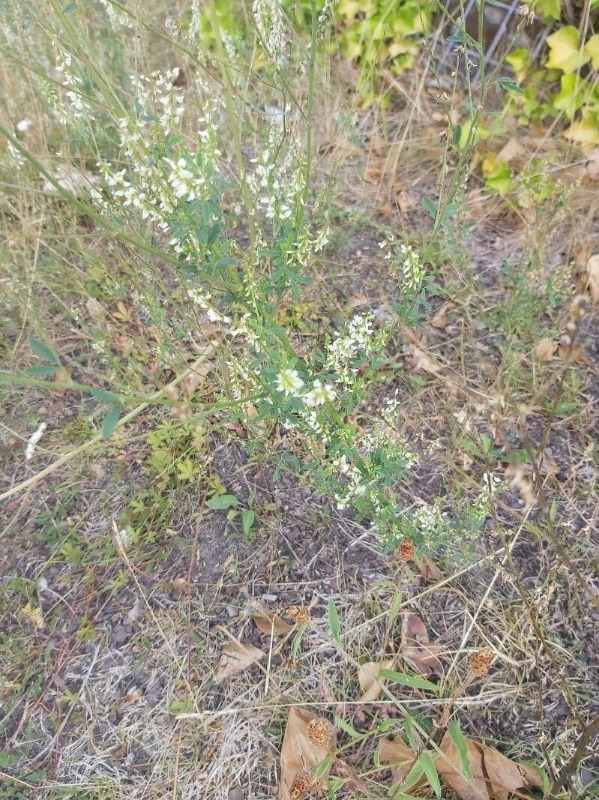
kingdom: Plantae
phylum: Tracheophyta
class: Magnoliopsida
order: Fabales
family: Fabaceae
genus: Melilotus
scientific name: Melilotus albus
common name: Hvid stenkløver
